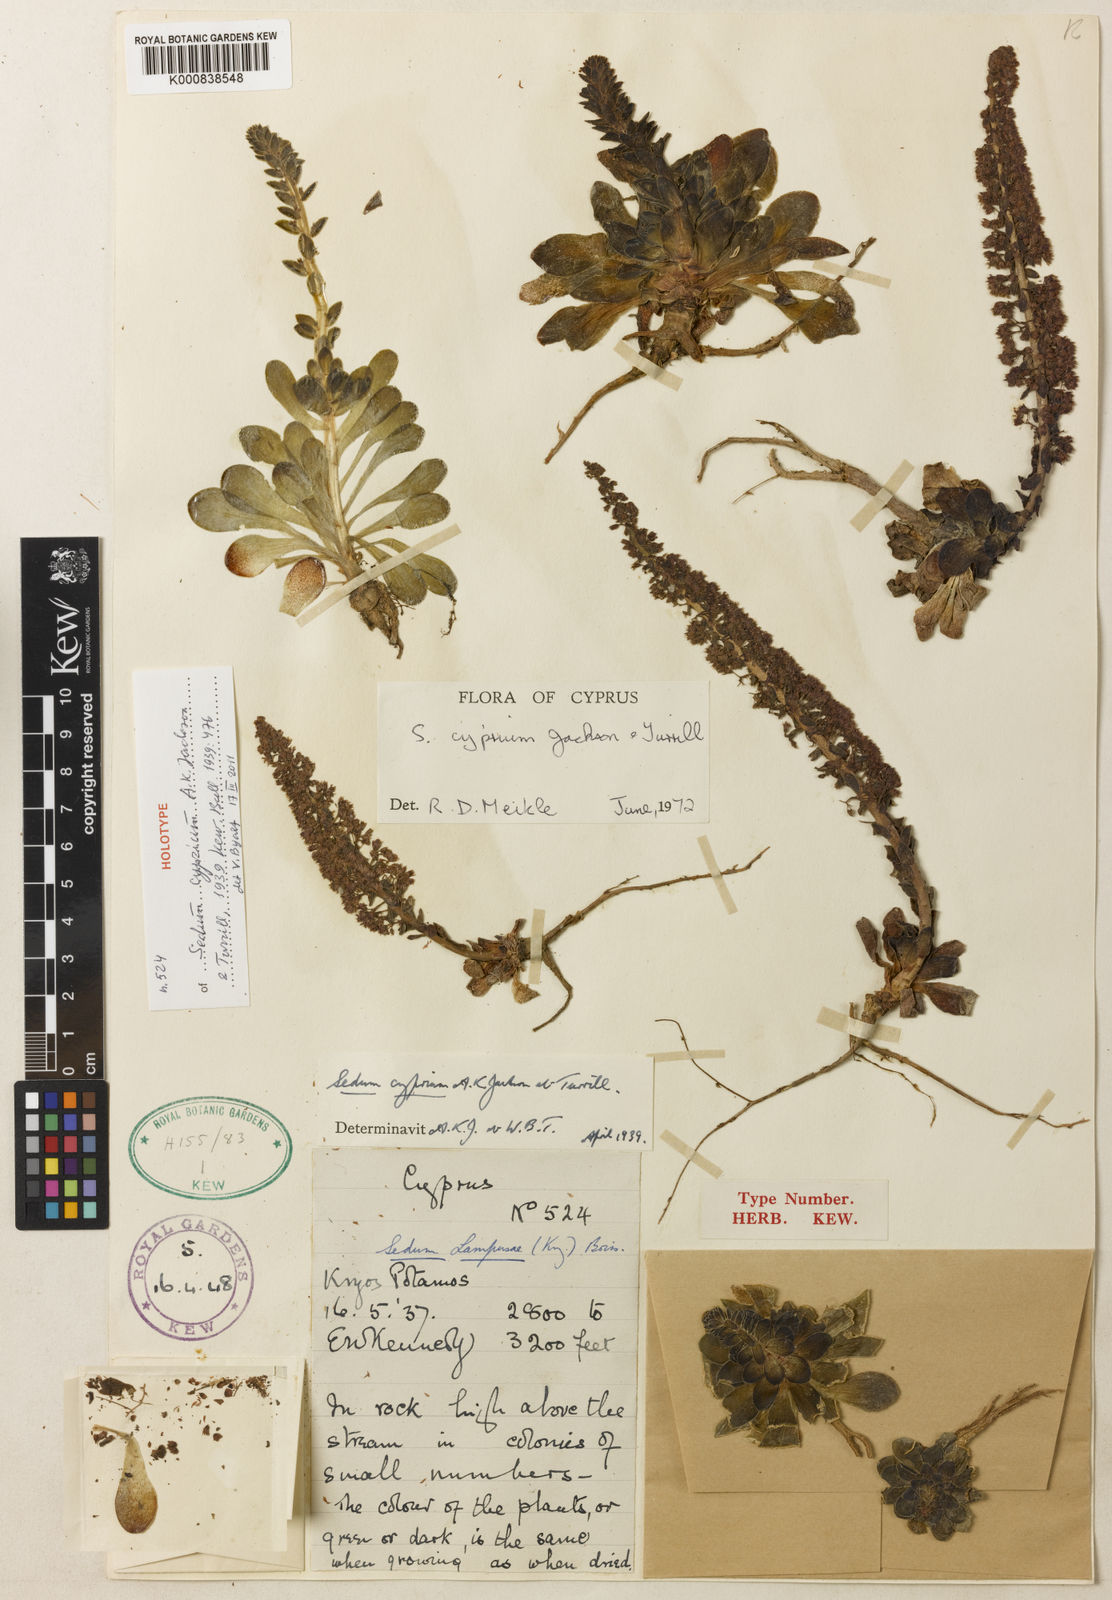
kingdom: Plantae
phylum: Tracheophyta
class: Magnoliopsida
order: Saxifragales
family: Crassulaceae
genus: Sedum
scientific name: Sedum cyprium
